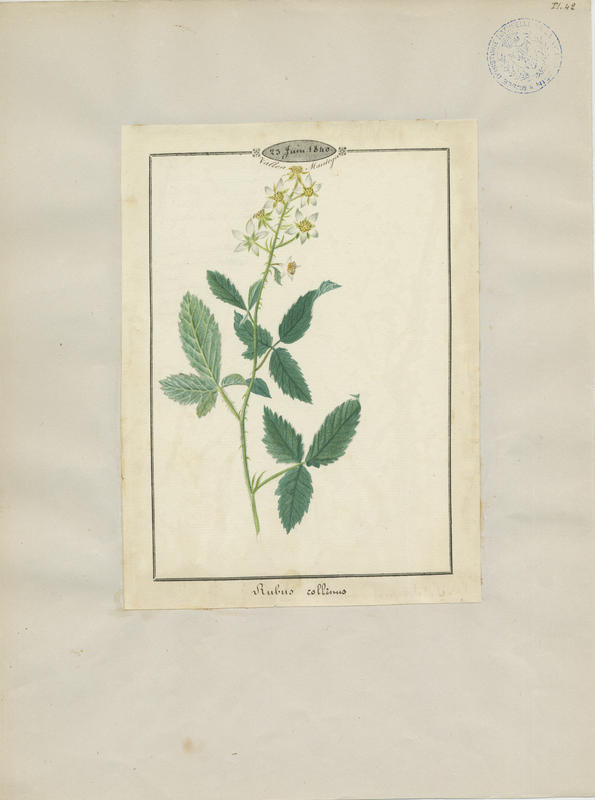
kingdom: Plantae
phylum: Tracheophyta
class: Magnoliopsida
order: Rosales
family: Rosaceae
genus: Rubus
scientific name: Rubus canescens
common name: Wooly blackberry
